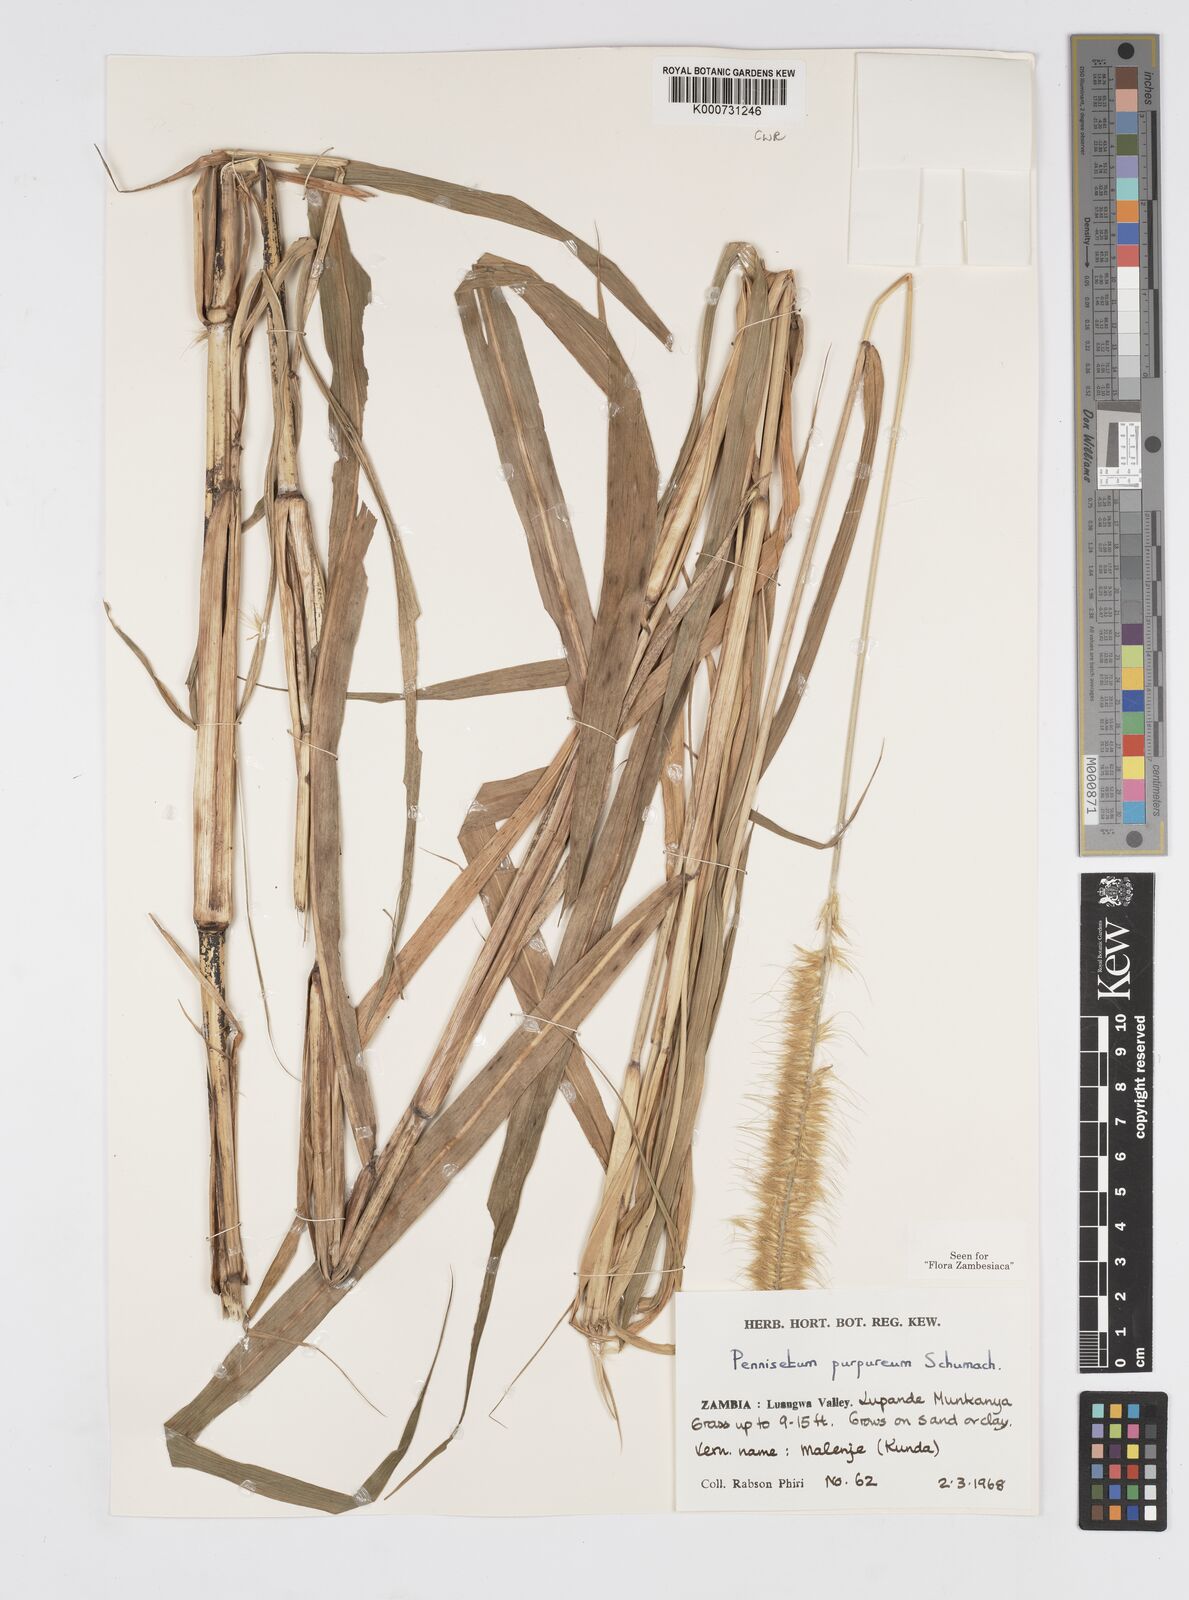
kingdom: Plantae
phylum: Tracheophyta
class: Liliopsida
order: Poales
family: Poaceae
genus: Cenchrus
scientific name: Cenchrus purpureus
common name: Elephant grass
